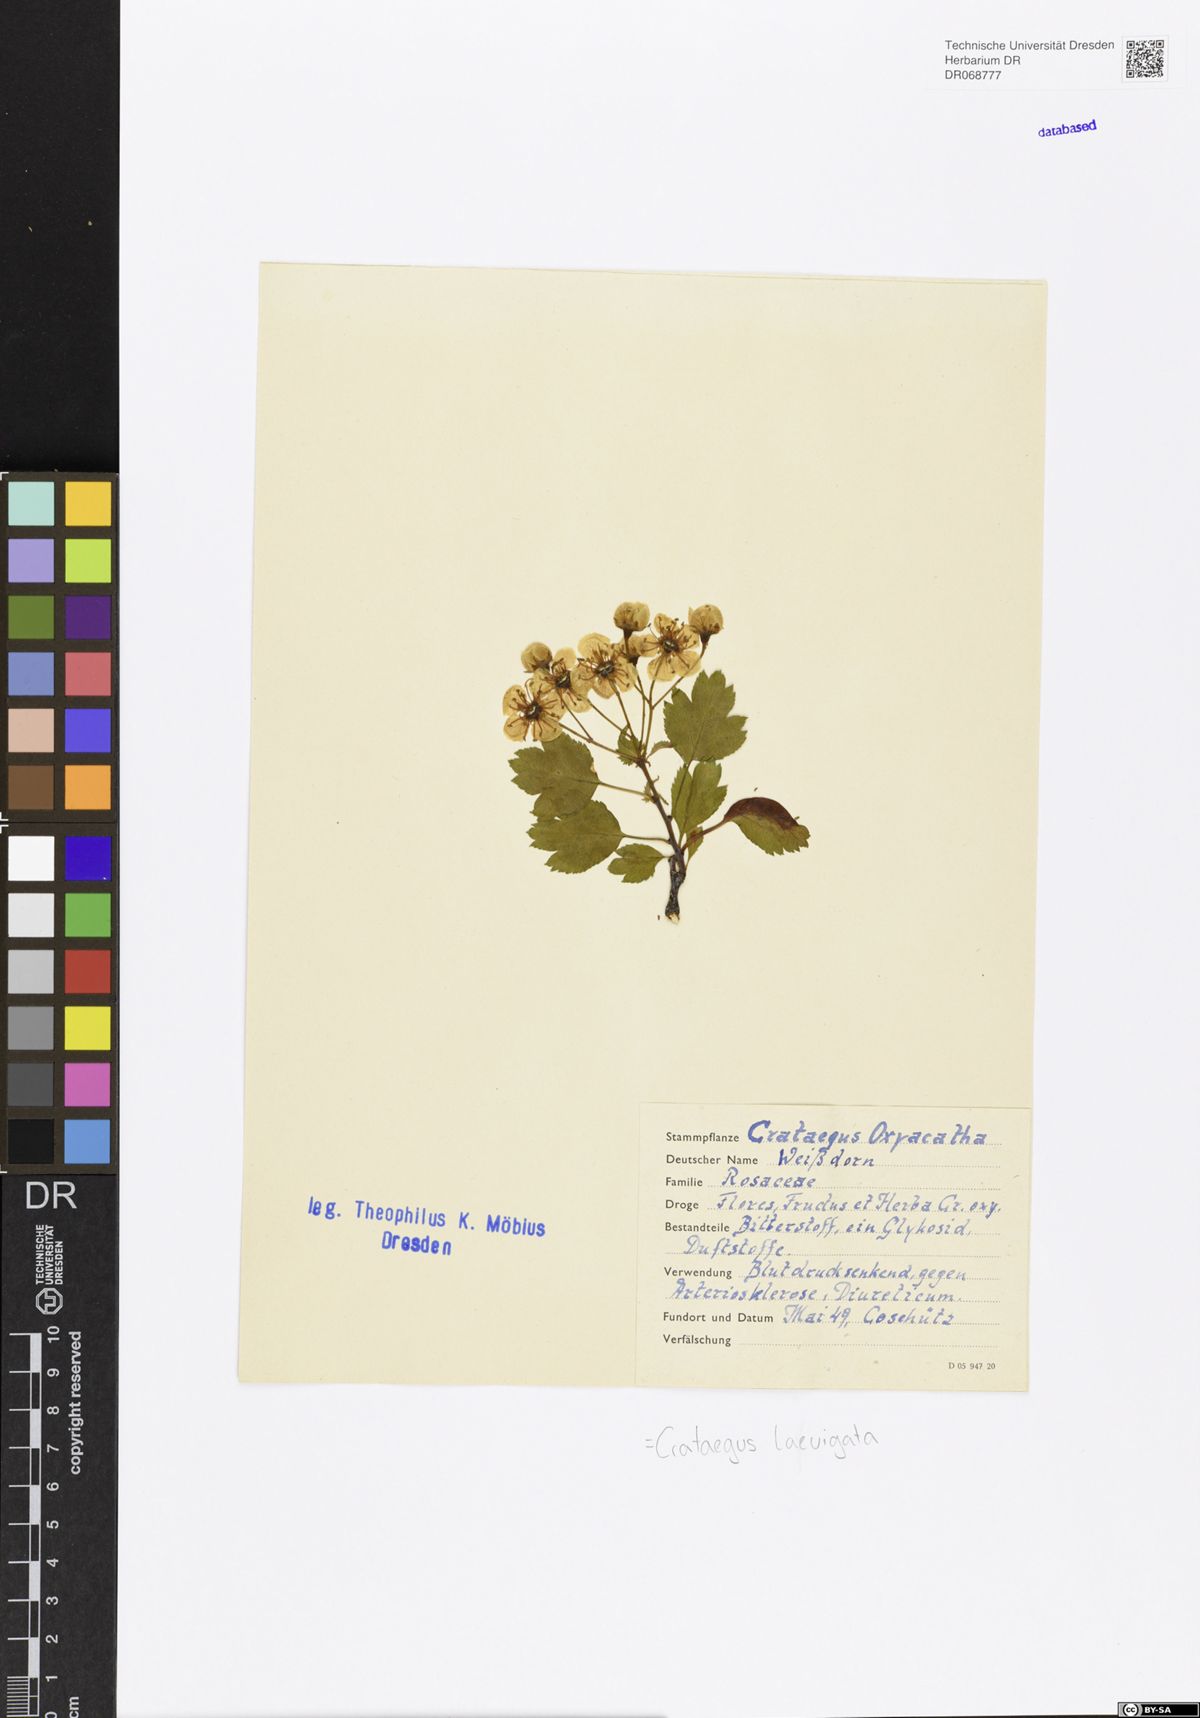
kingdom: Plantae
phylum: Tracheophyta
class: Magnoliopsida
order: Rosales
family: Rosaceae
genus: Crataegus
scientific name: Crataegus laevigata
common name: Midland hawthorn
